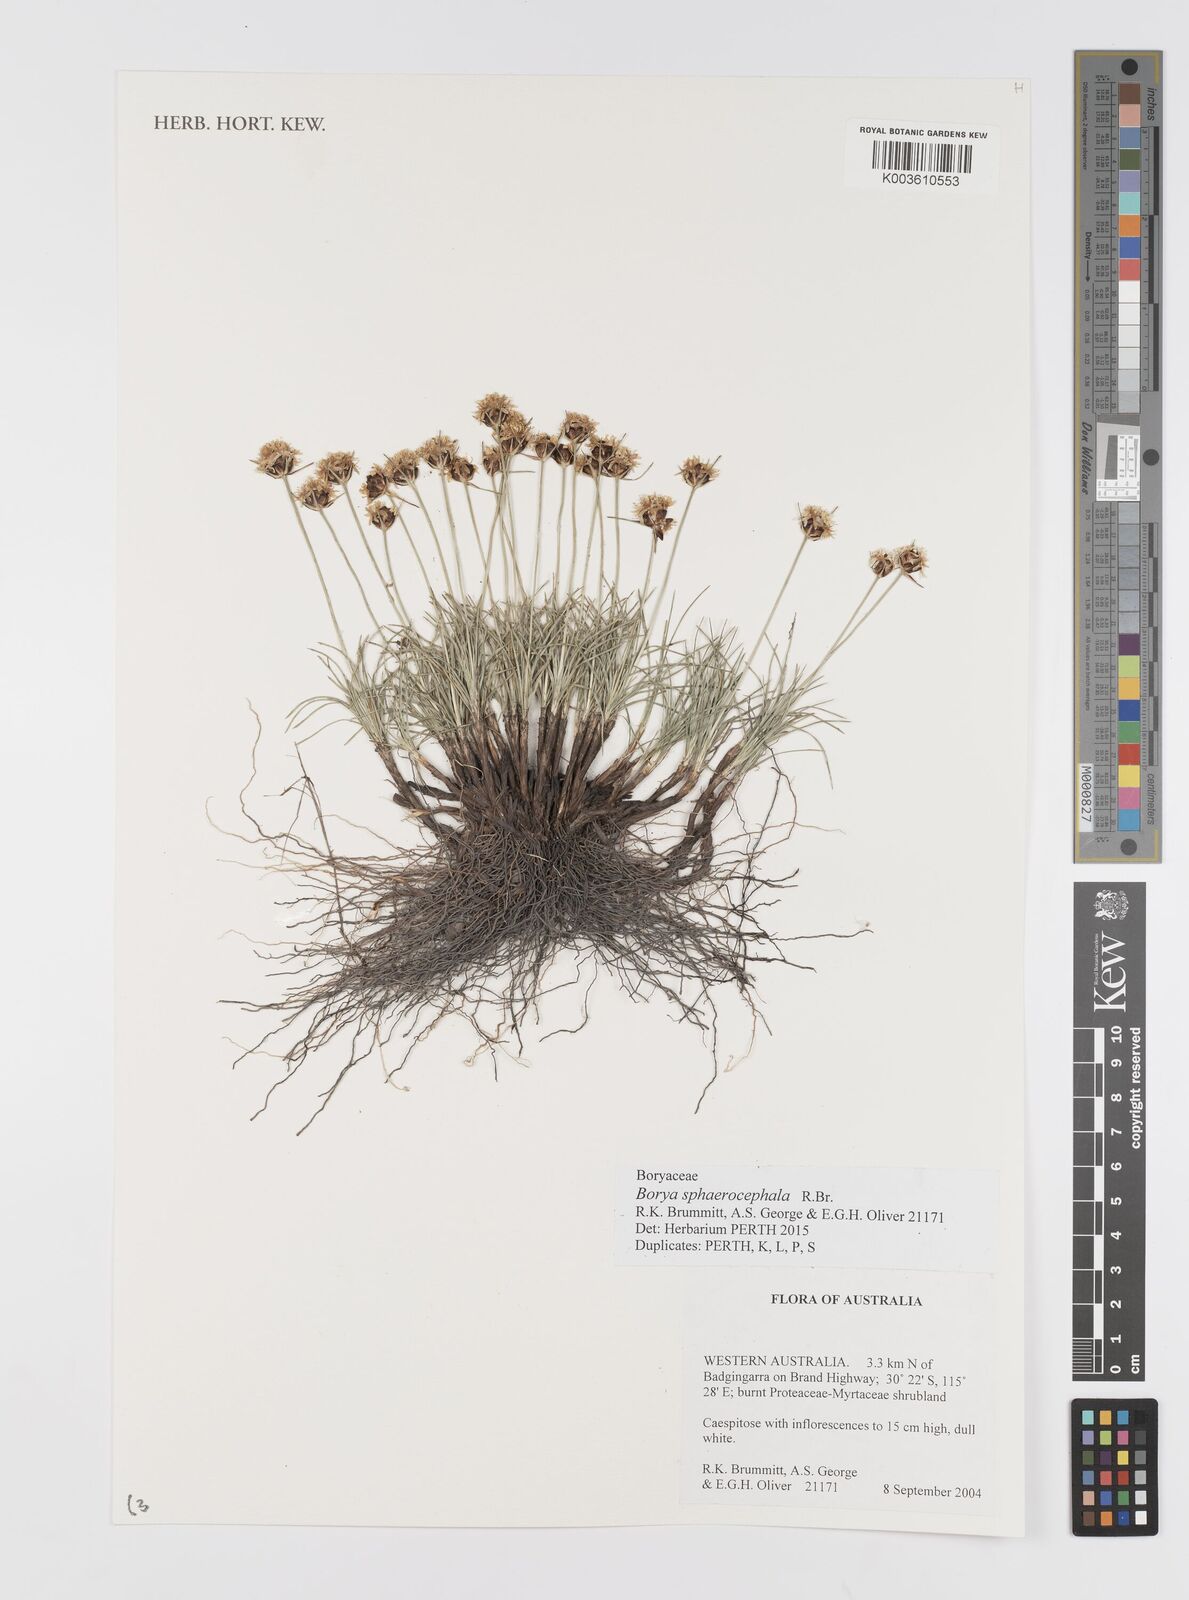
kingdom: Plantae
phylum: Tracheophyta
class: Liliopsida
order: Asparagales
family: Boryaceae
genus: Borya
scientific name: Borya sphaerocephala
